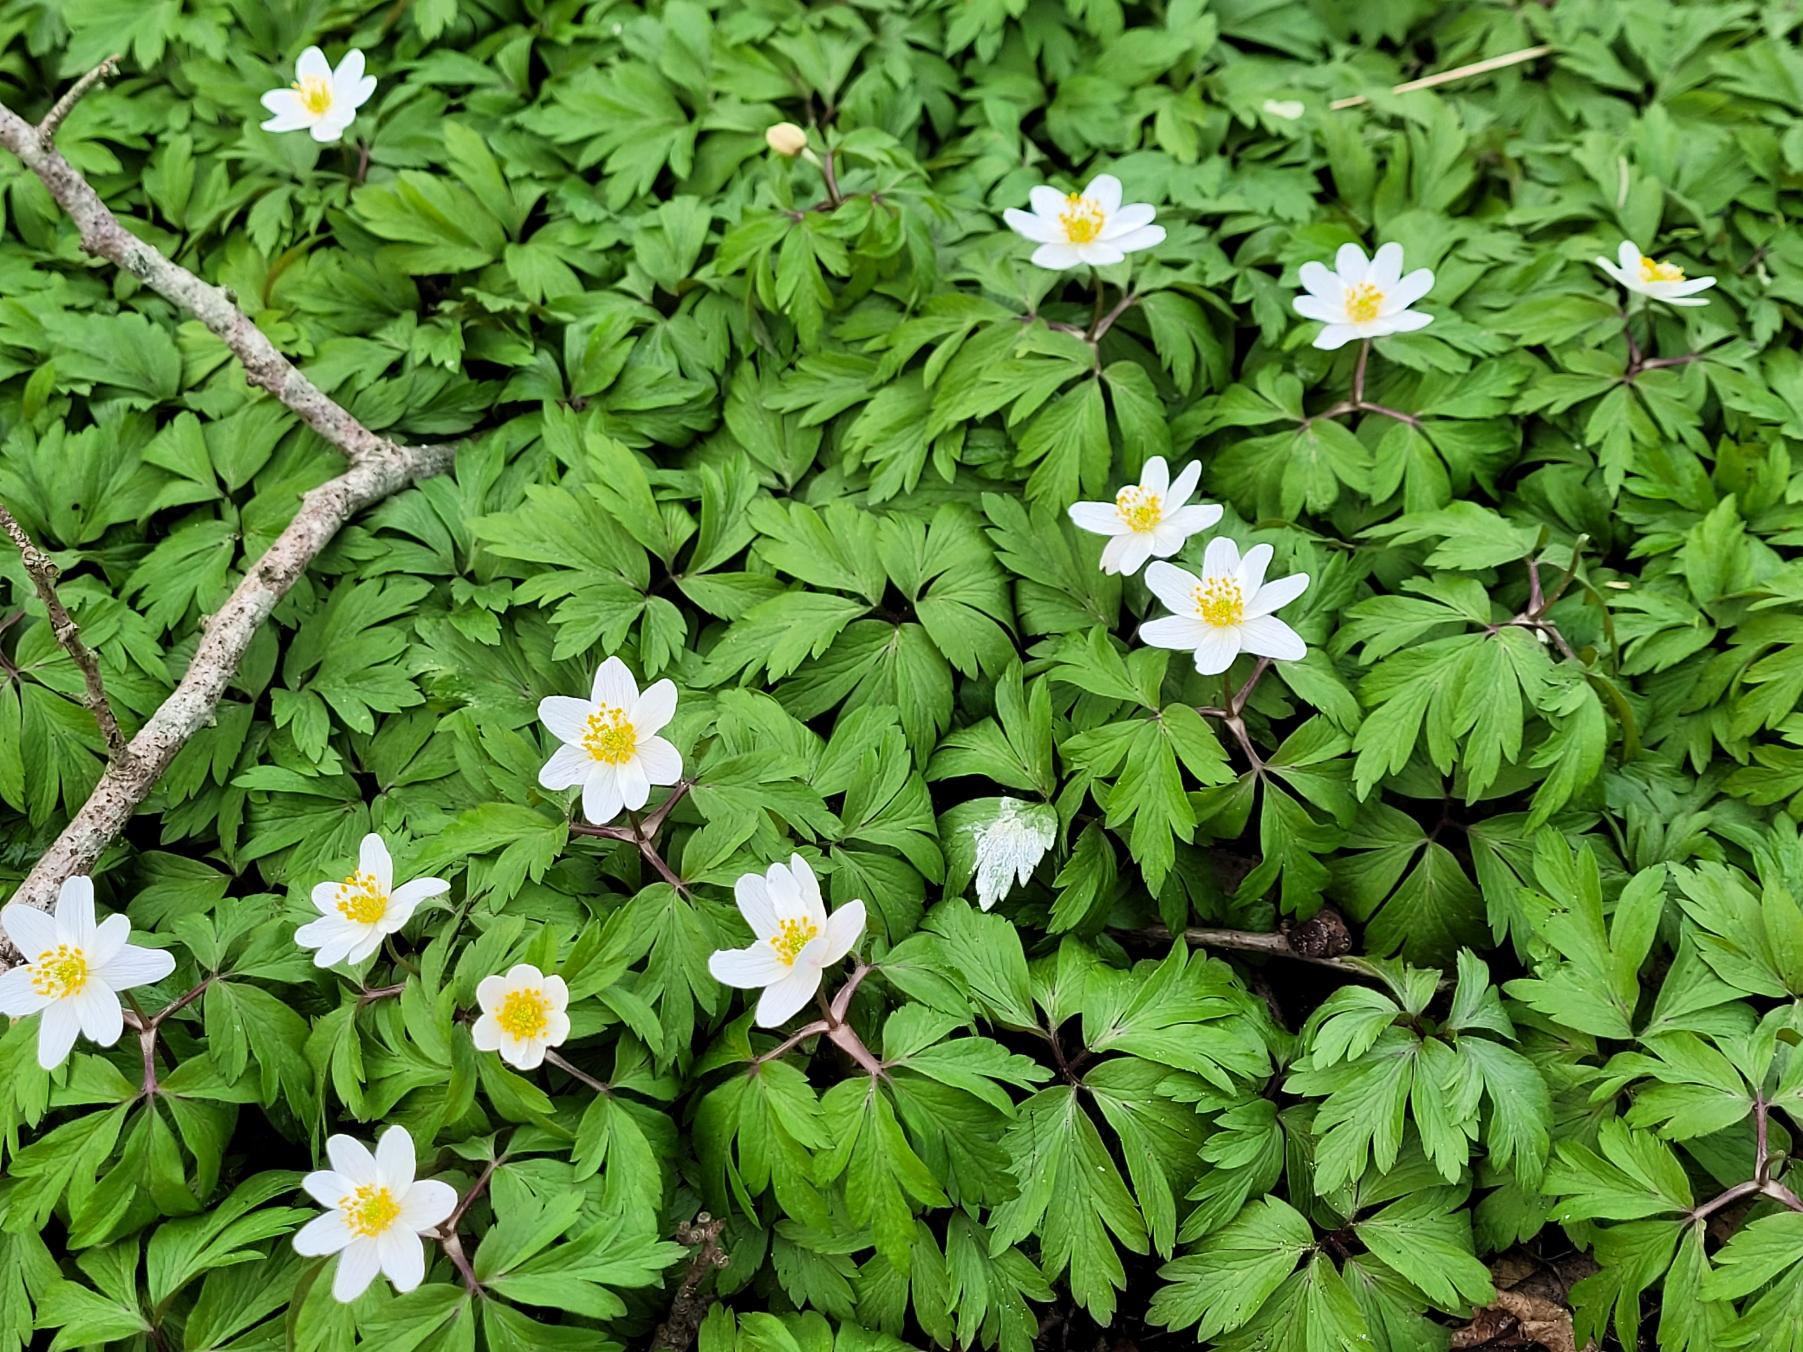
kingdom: Plantae
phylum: Tracheophyta
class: Magnoliopsida
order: Ranunculales
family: Ranunculaceae
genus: Anemone
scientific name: Anemone nemorosa
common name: Hvid anemone
